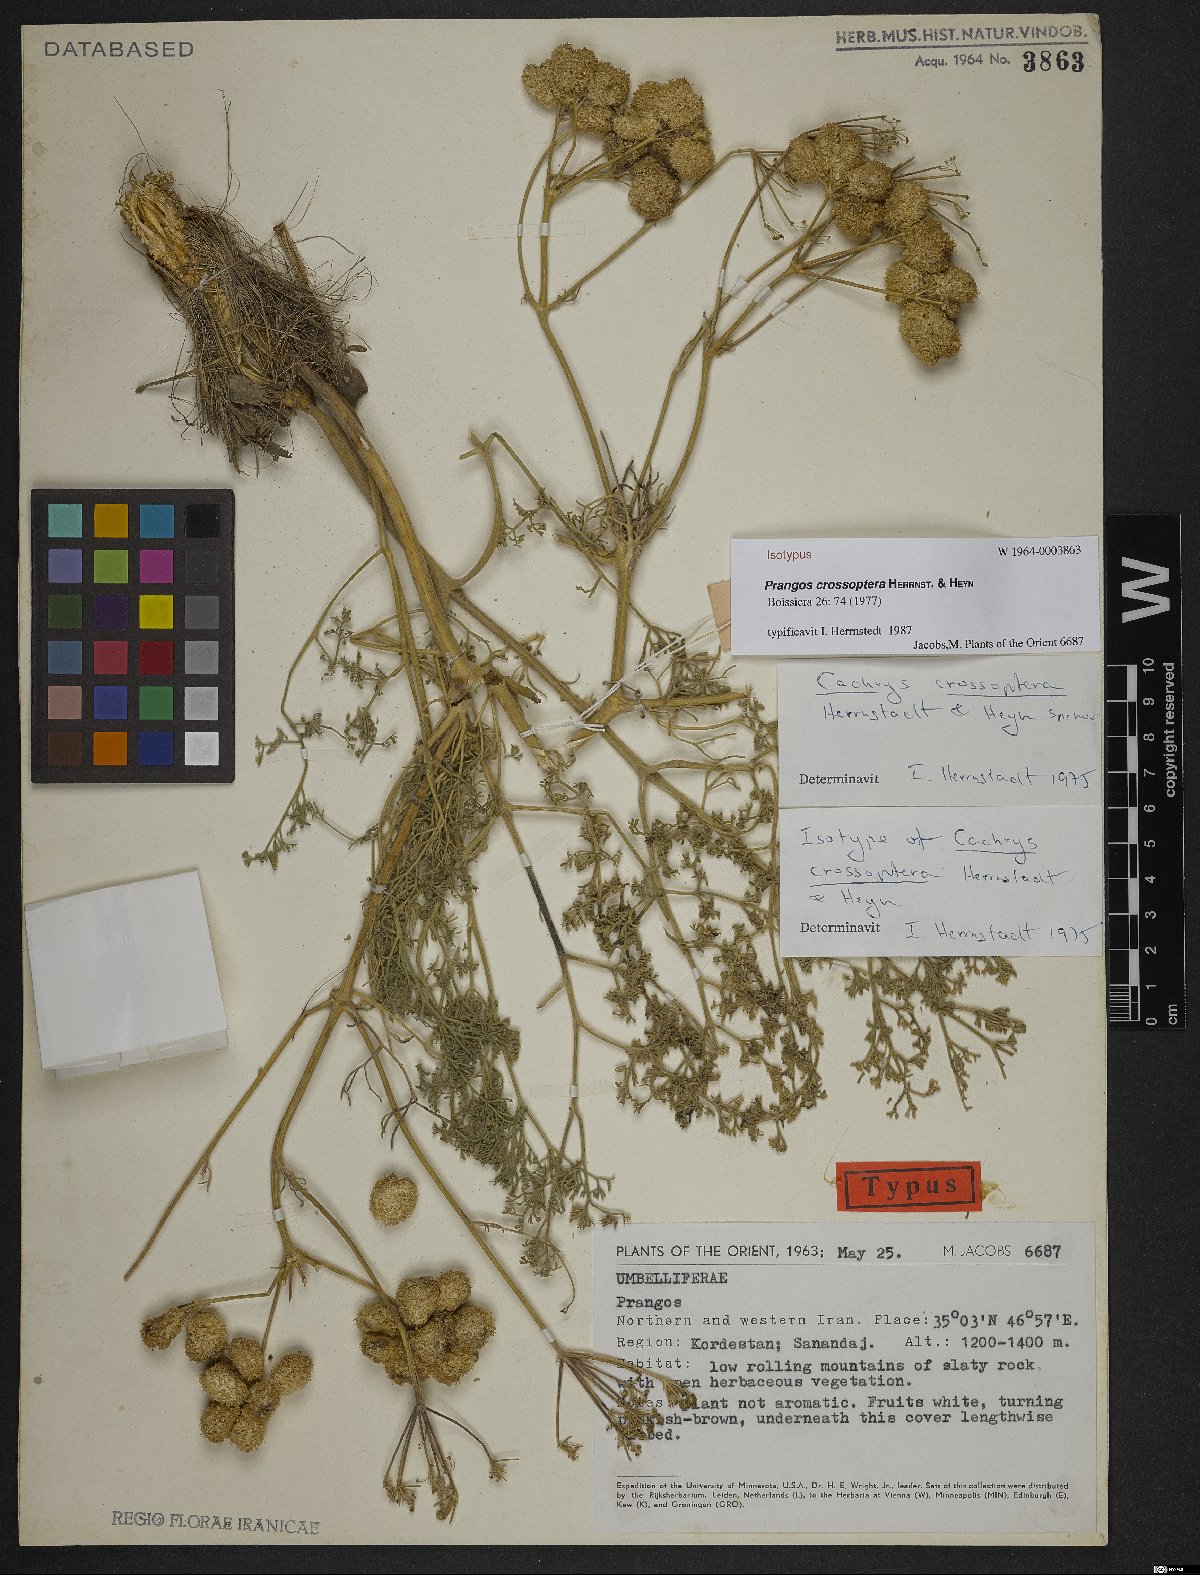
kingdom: Plantae
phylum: Tracheophyta
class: Magnoliopsida
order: Apiales
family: Apiaceae
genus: Prangos
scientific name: Prangos crossoptera
